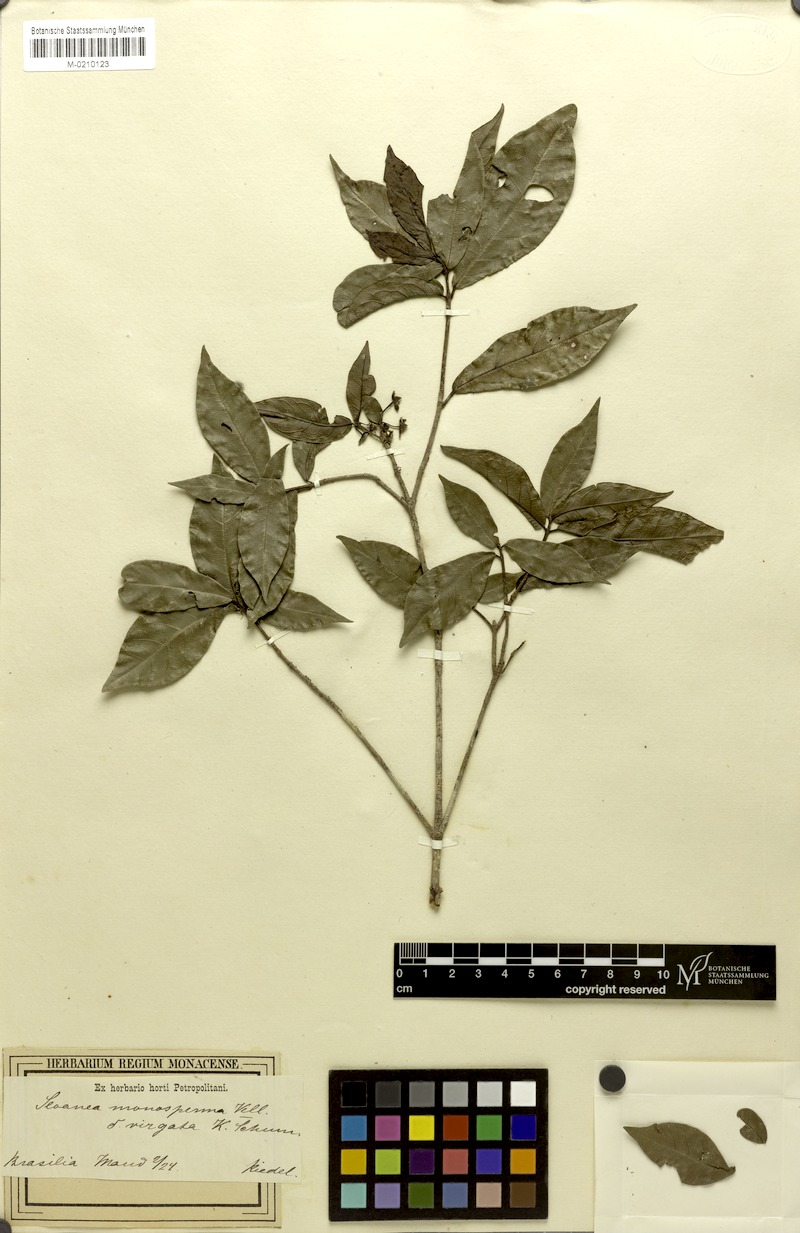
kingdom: Plantae
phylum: Tracheophyta
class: Magnoliopsida
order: Oxalidales
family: Elaeocarpaceae
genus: Sloanea
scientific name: Sloanea hirsuta
